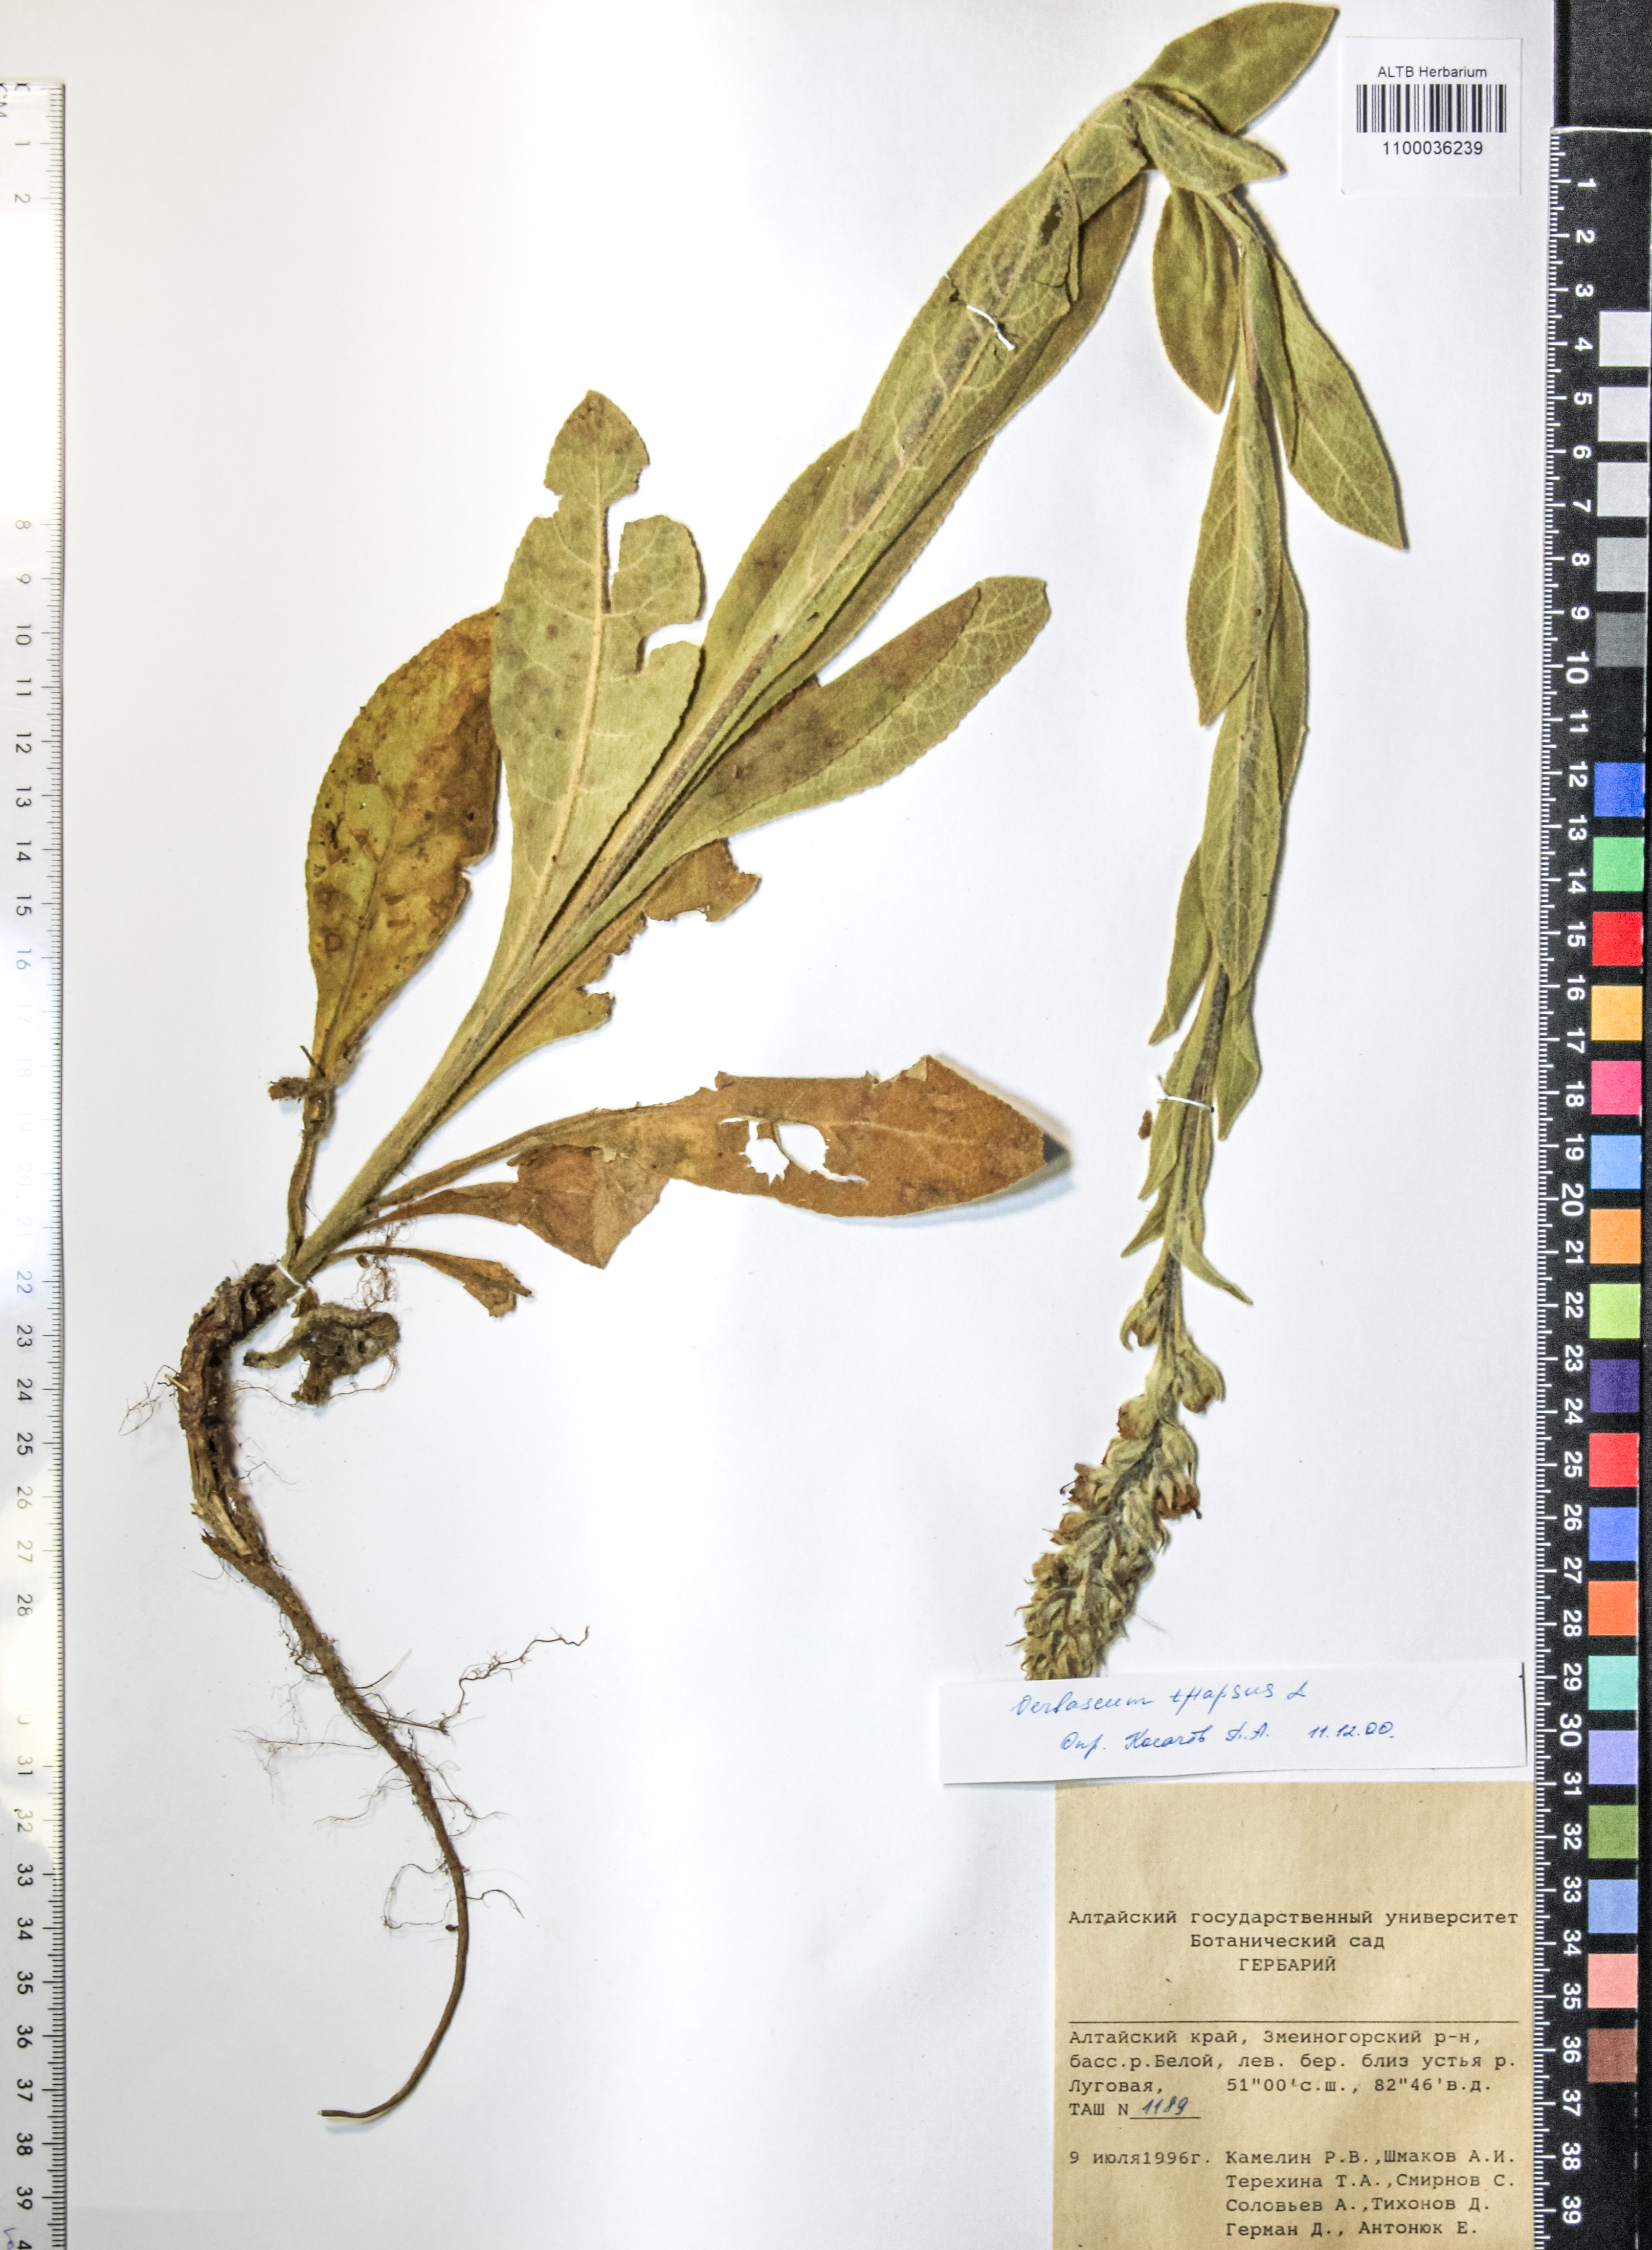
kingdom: Plantae
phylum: Tracheophyta
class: Magnoliopsida
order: Lamiales
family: Scrophulariaceae
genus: Verbascum
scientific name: Verbascum thapsus
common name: Common mullein
